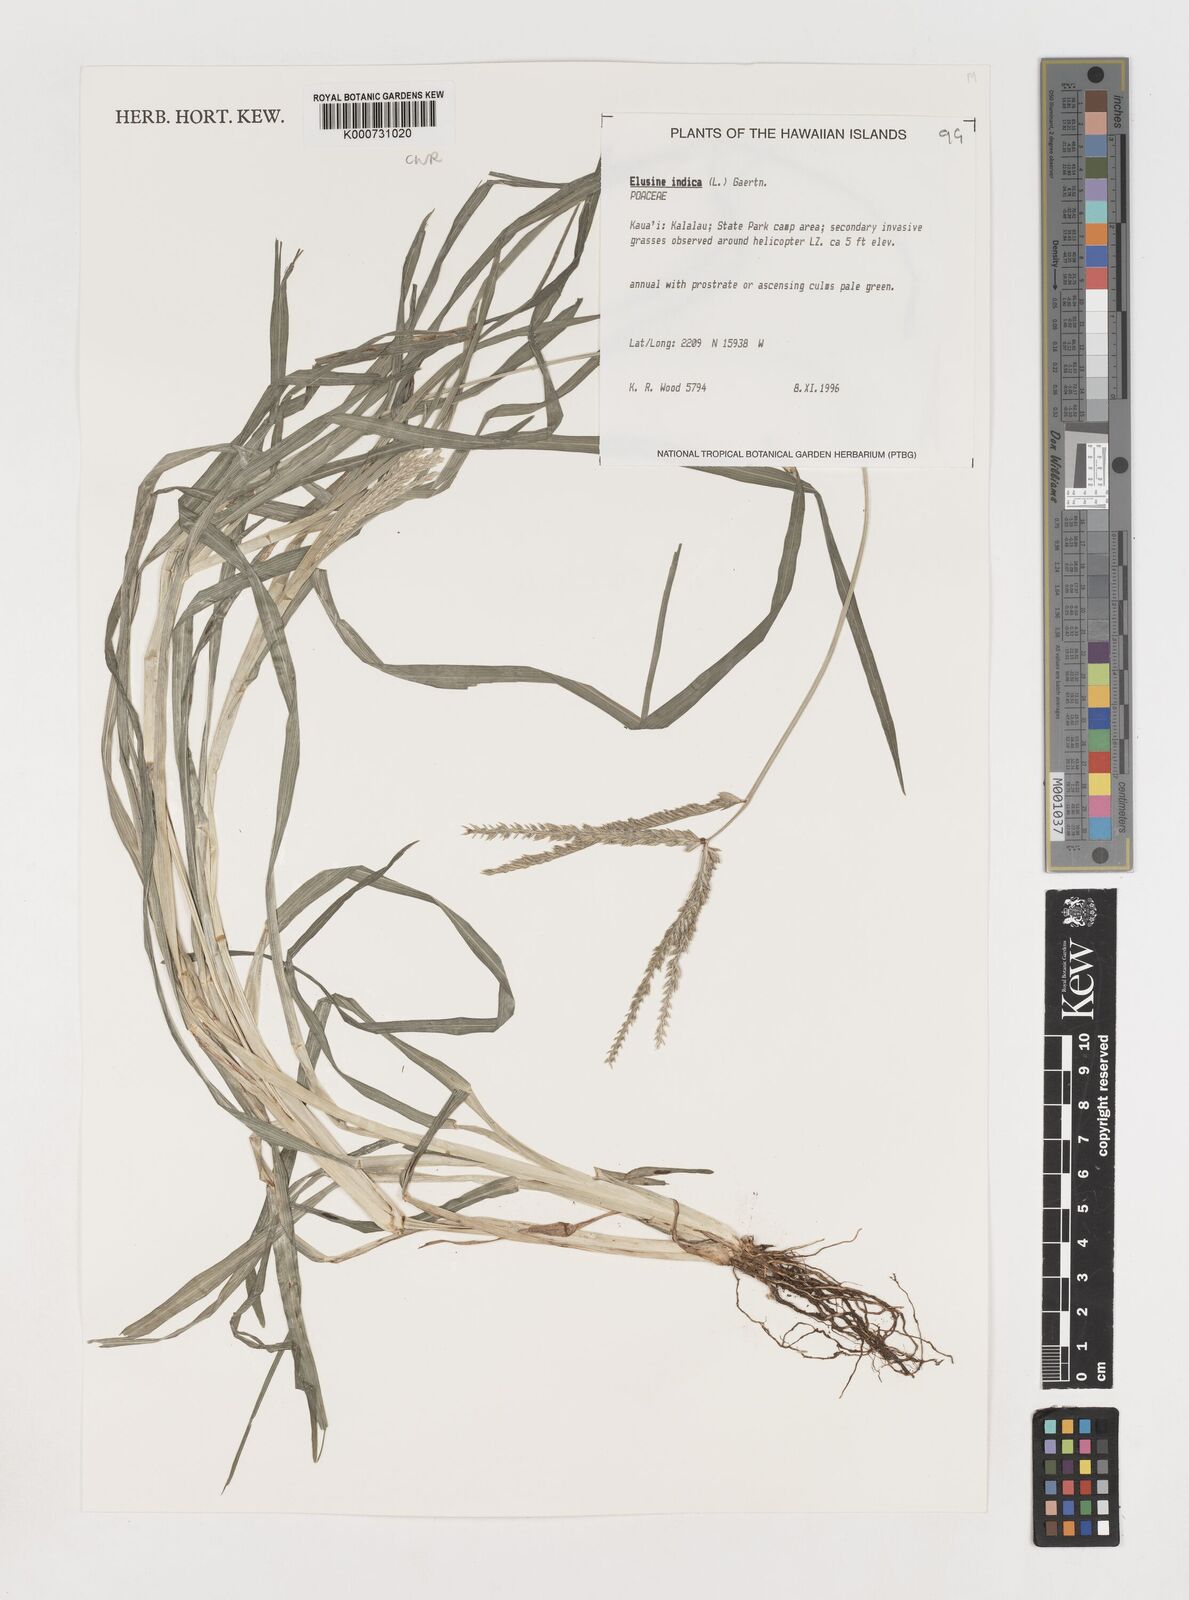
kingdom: Plantae
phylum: Tracheophyta
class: Liliopsida
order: Poales
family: Poaceae
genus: Eleusine
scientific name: Eleusine indica
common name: Yard-grass
